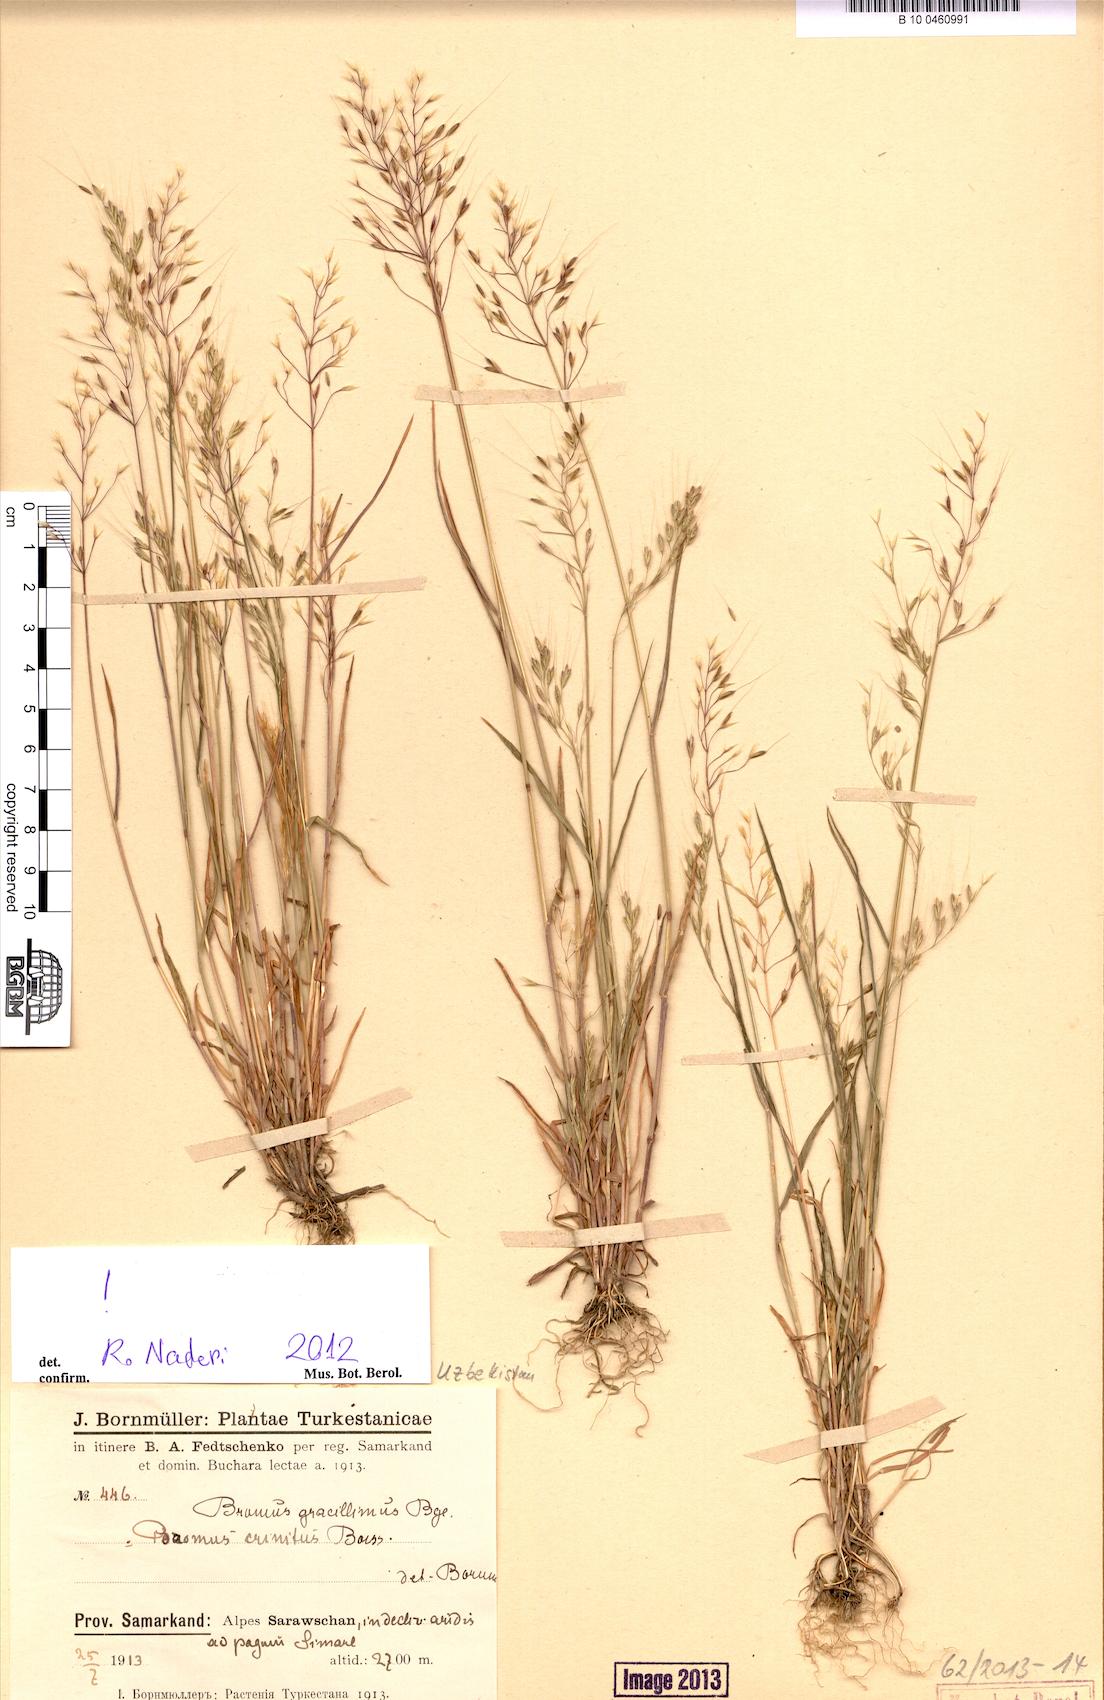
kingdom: Plantae
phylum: Tracheophyta
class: Liliopsida
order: Poales
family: Poaceae
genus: Bromus
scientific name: Bromus gracillimus
